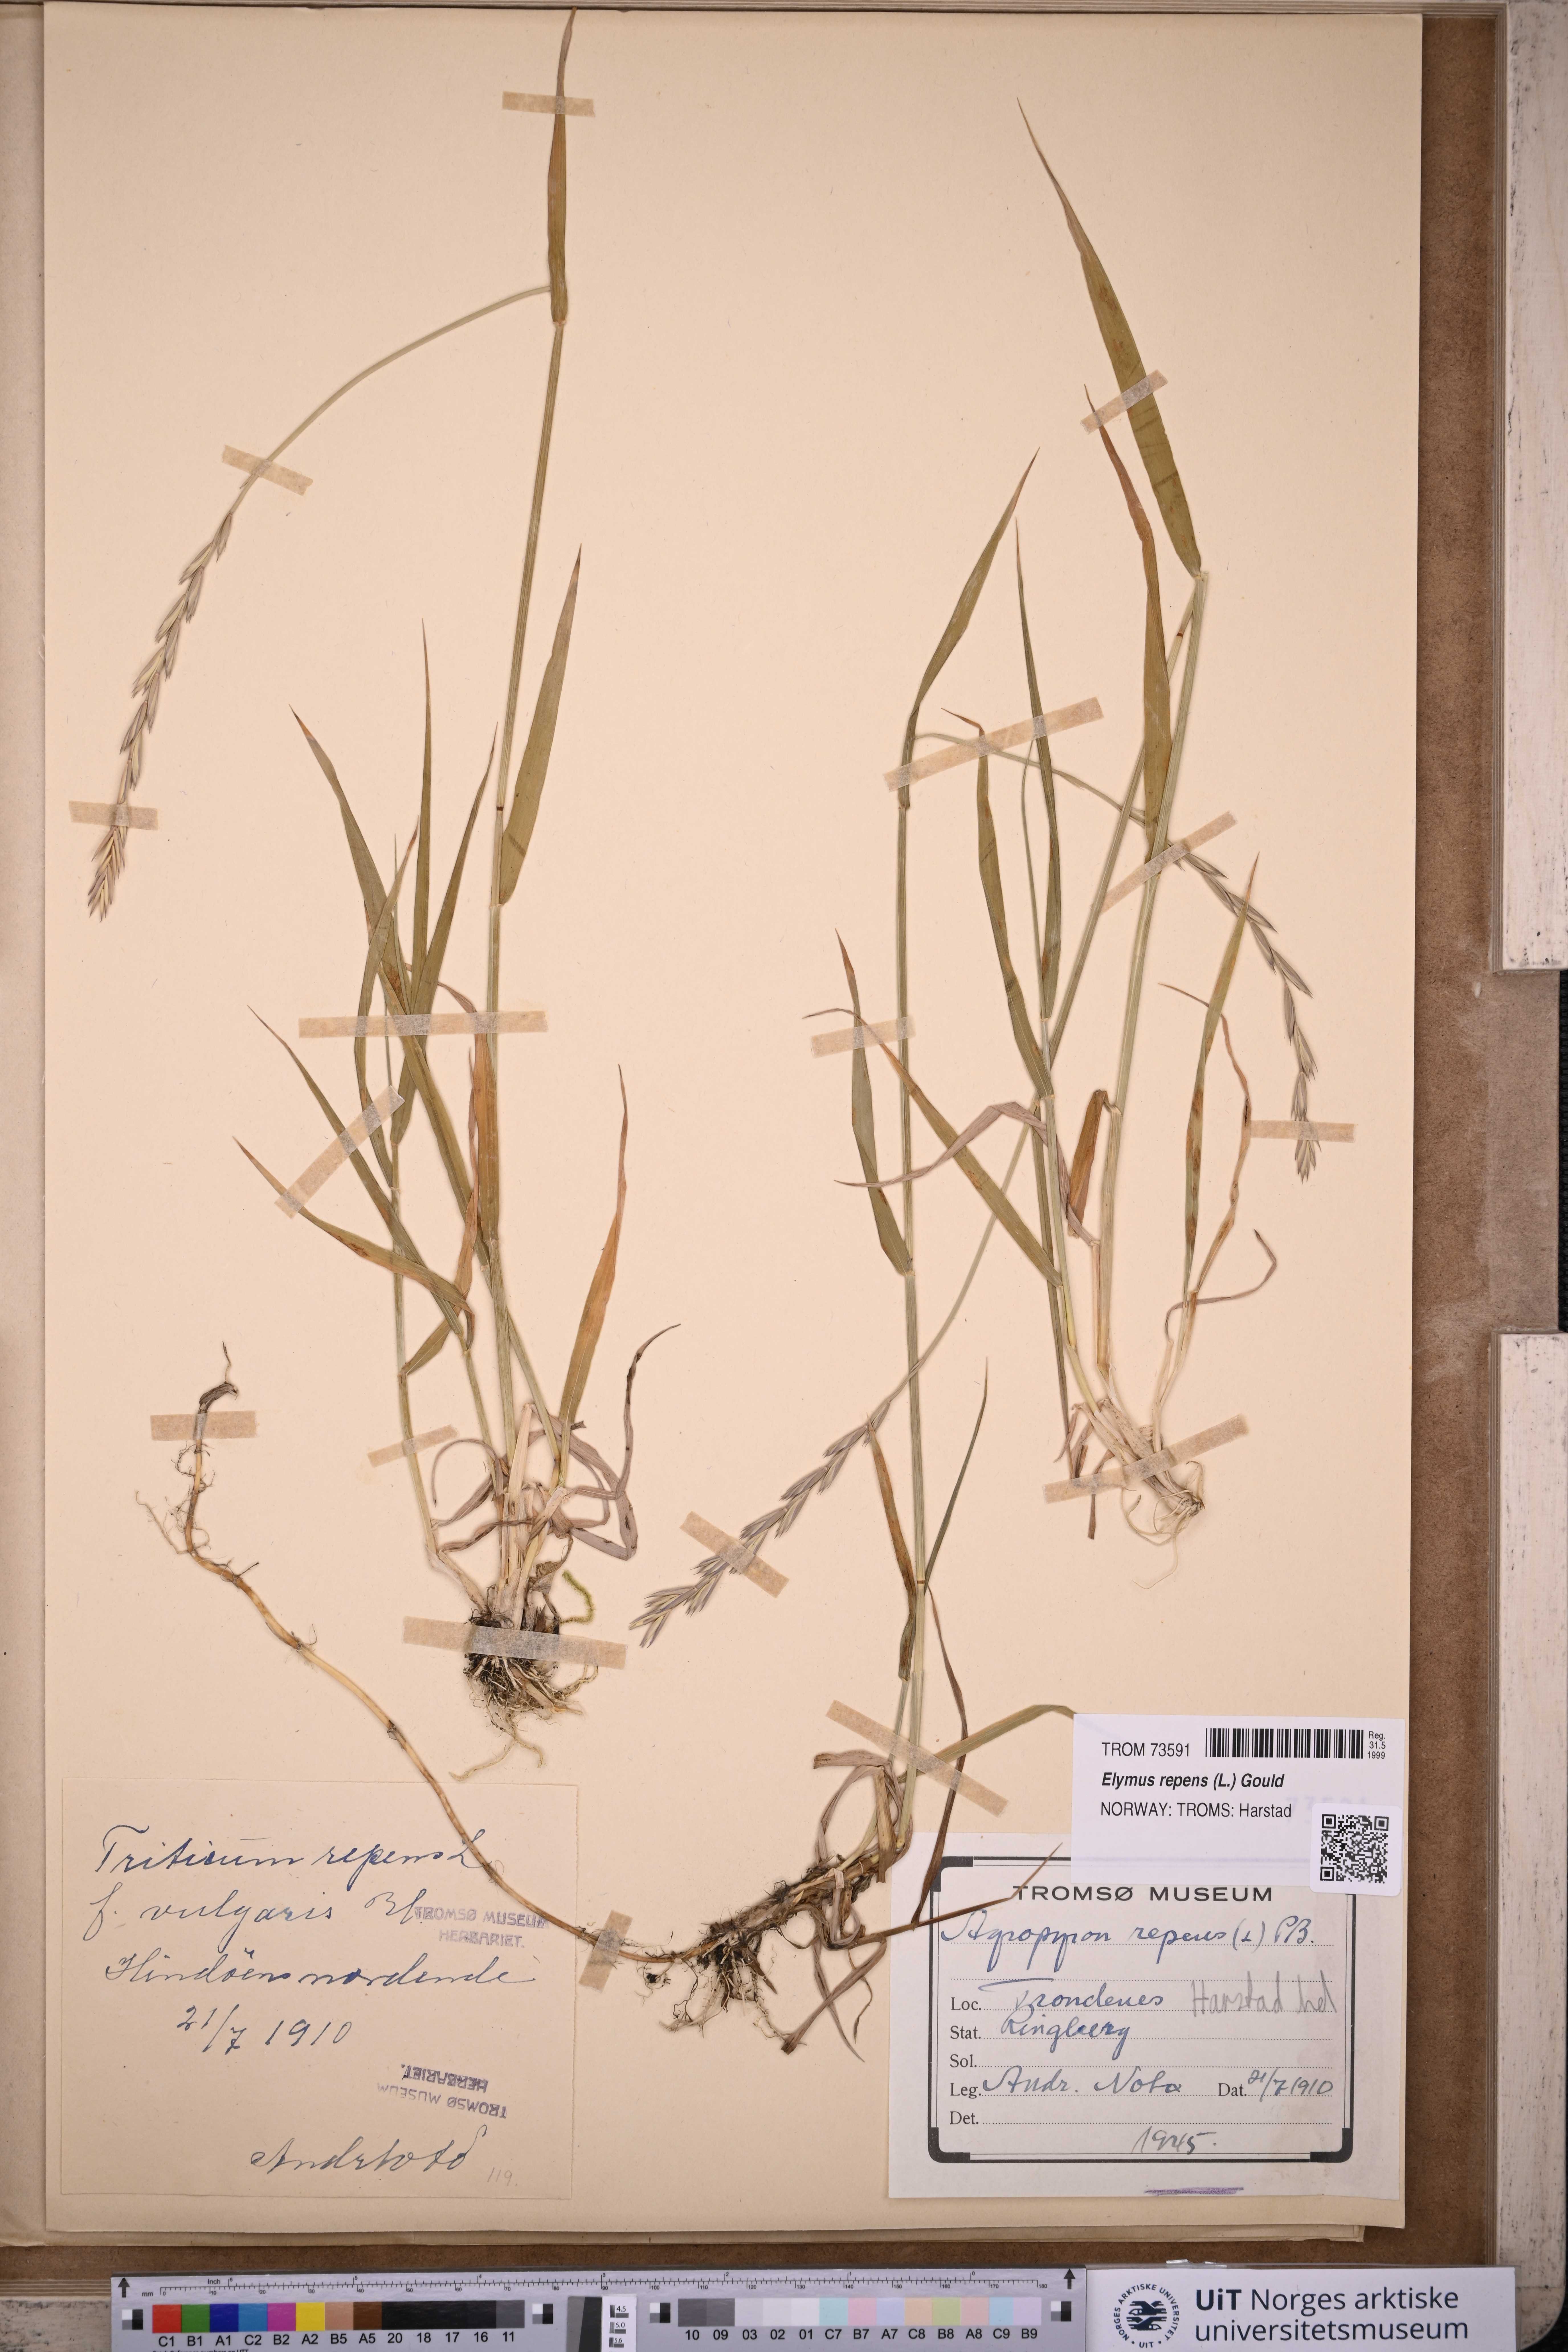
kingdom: Plantae
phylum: Tracheophyta
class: Liliopsida
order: Poales
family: Poaceae
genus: Elymus
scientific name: Elymus repens
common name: Quackgrass
